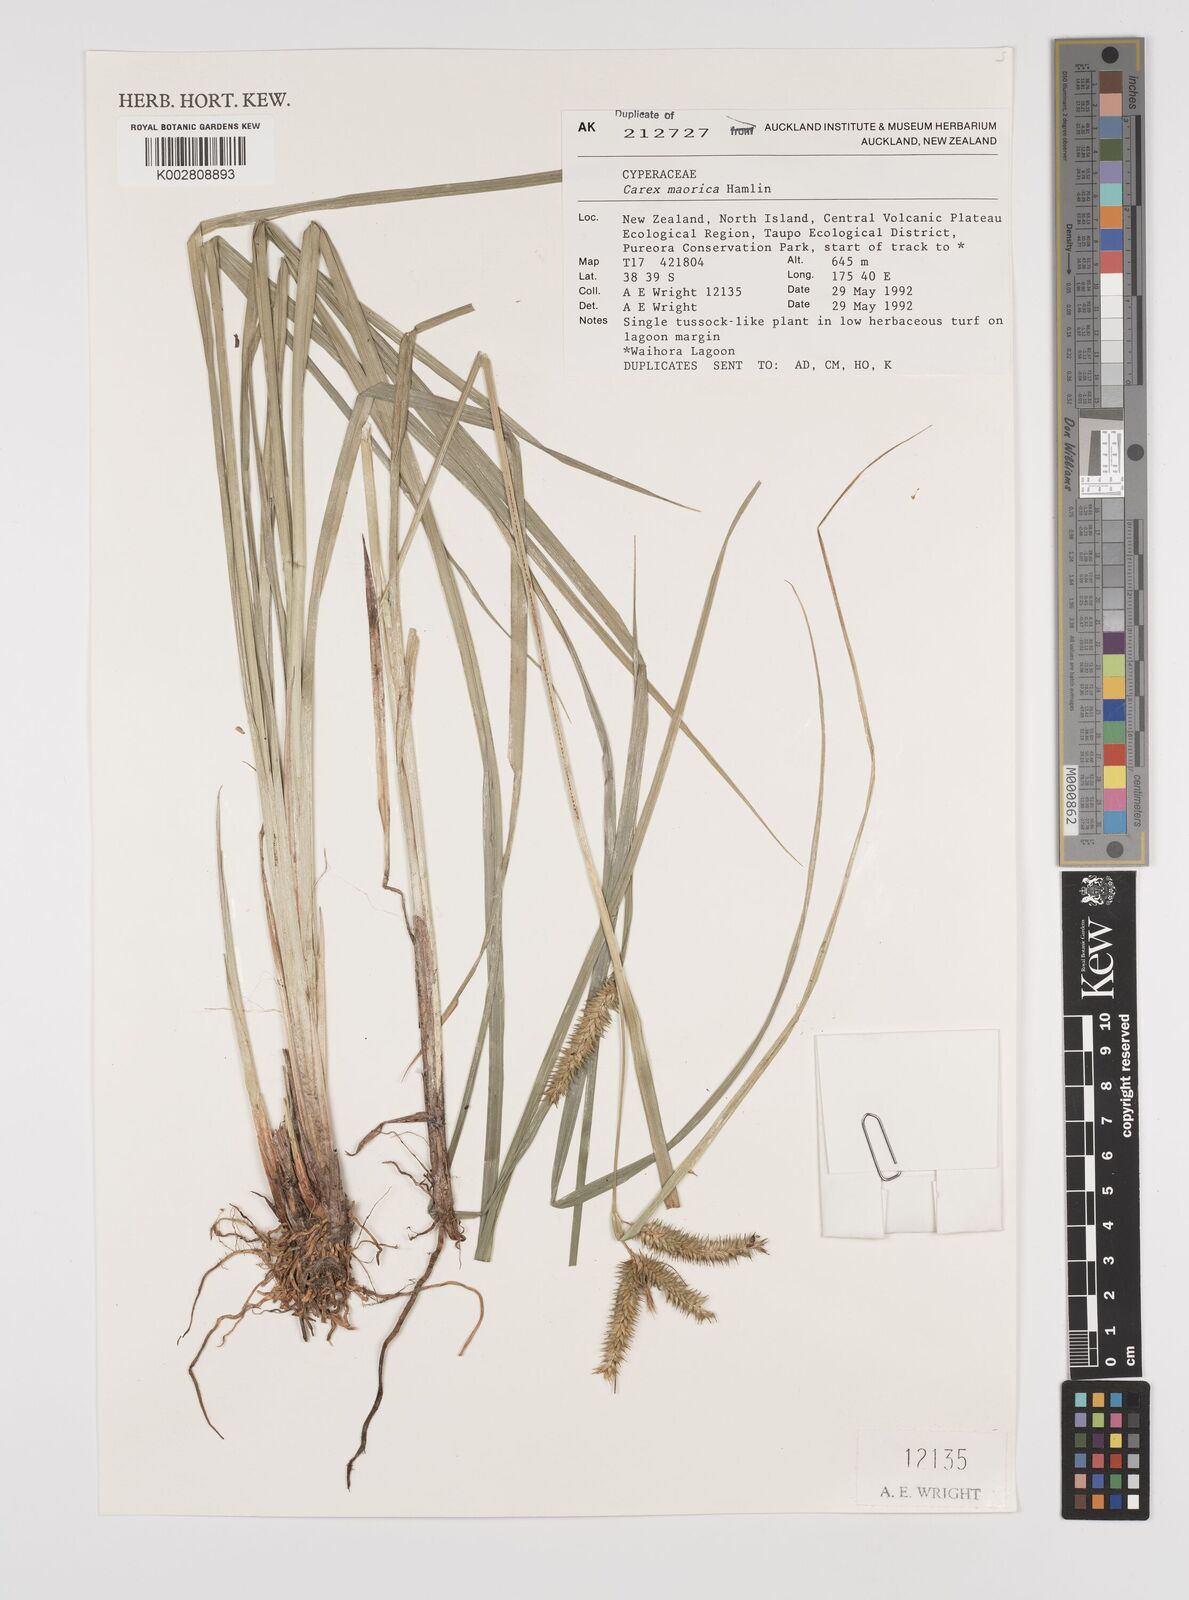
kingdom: Plantae
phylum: Tracheophyta
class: Liliopsida
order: Poales
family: Cyperaceae
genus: Carex
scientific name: Carex fascicularis
